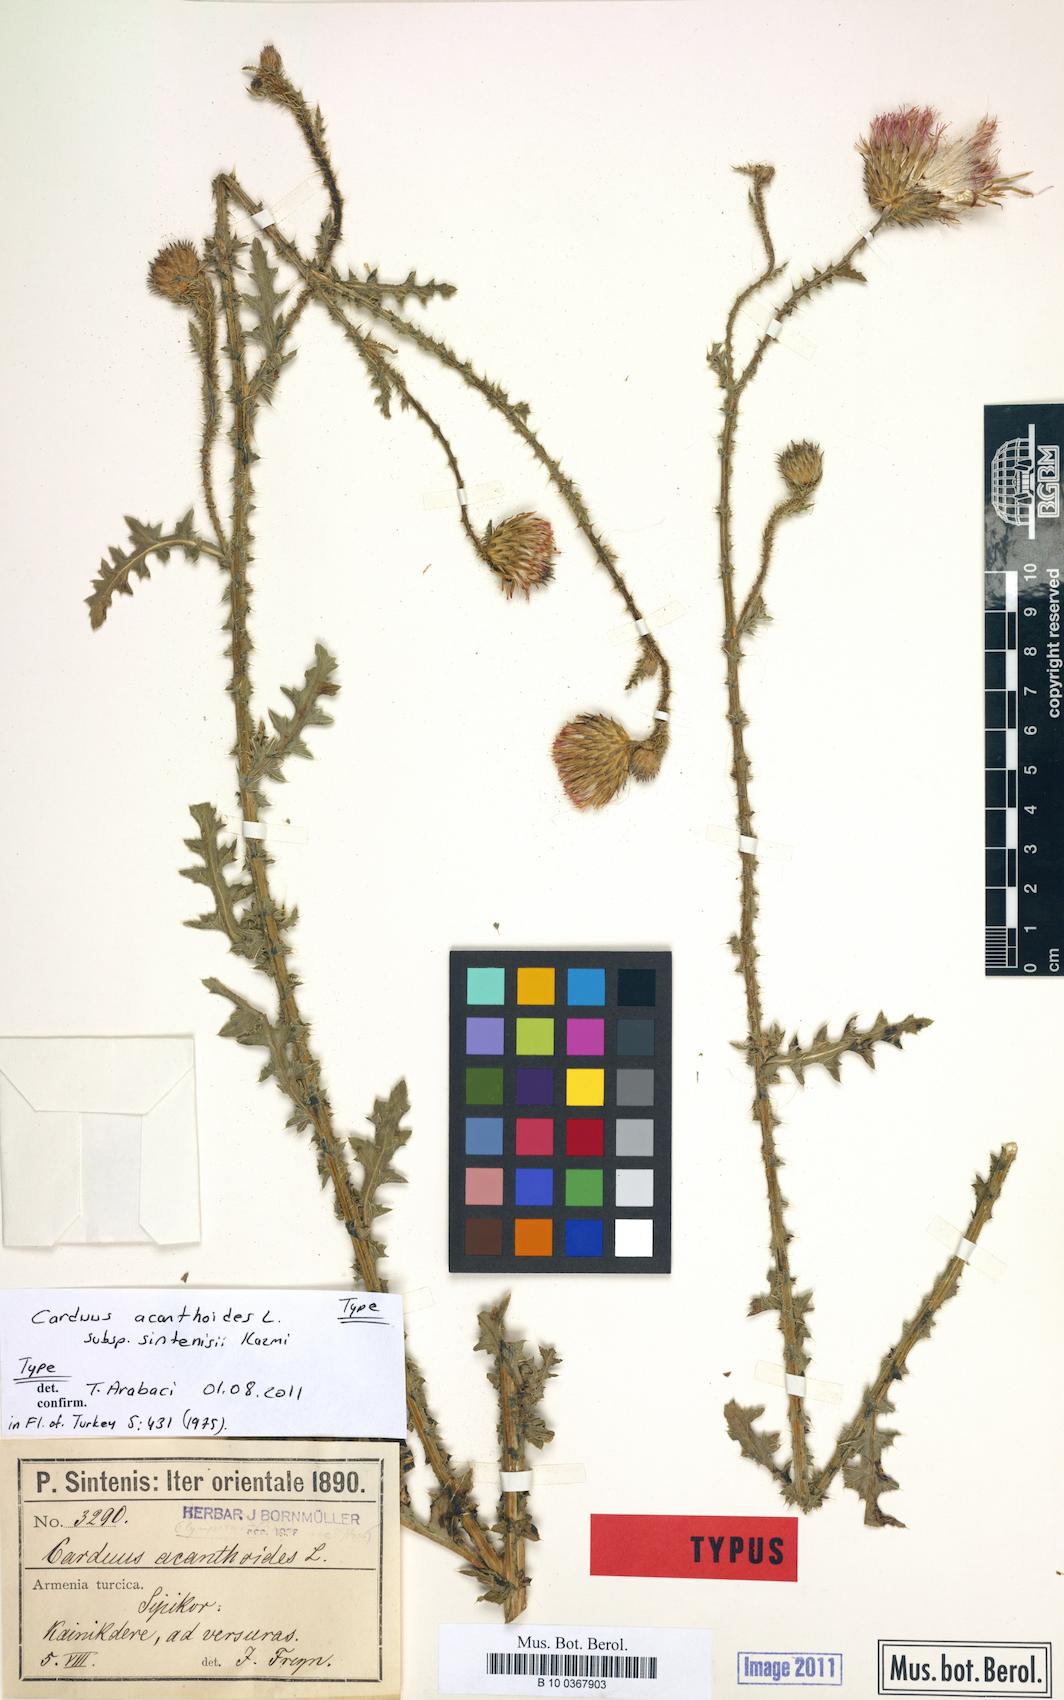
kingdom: Plantae
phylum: Tracheophyta
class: Magnoliopsida
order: Asterales
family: Asteraceae
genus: Carduus
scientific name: Carduus acanthoides
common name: Plumeless thistle
